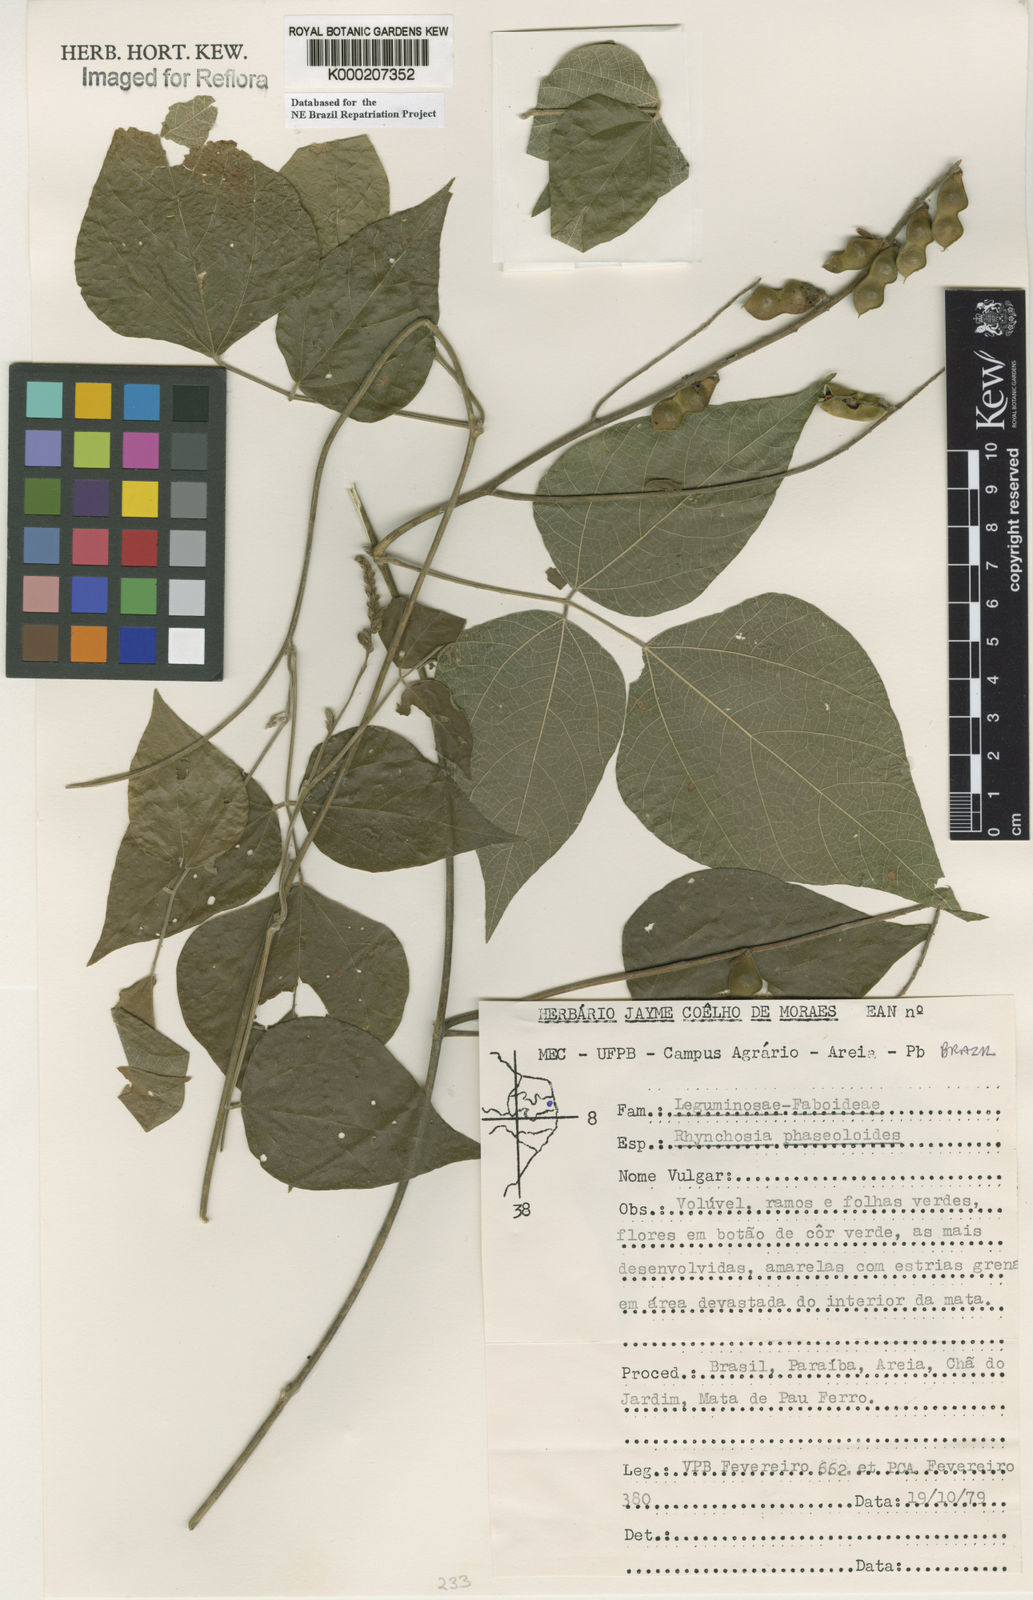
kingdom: Plantae
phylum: Tracheophyta
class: Magnoliopsida
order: Fabales
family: Fabaceae
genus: Rhynchosia
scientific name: Rhynchosia phaseoloides
